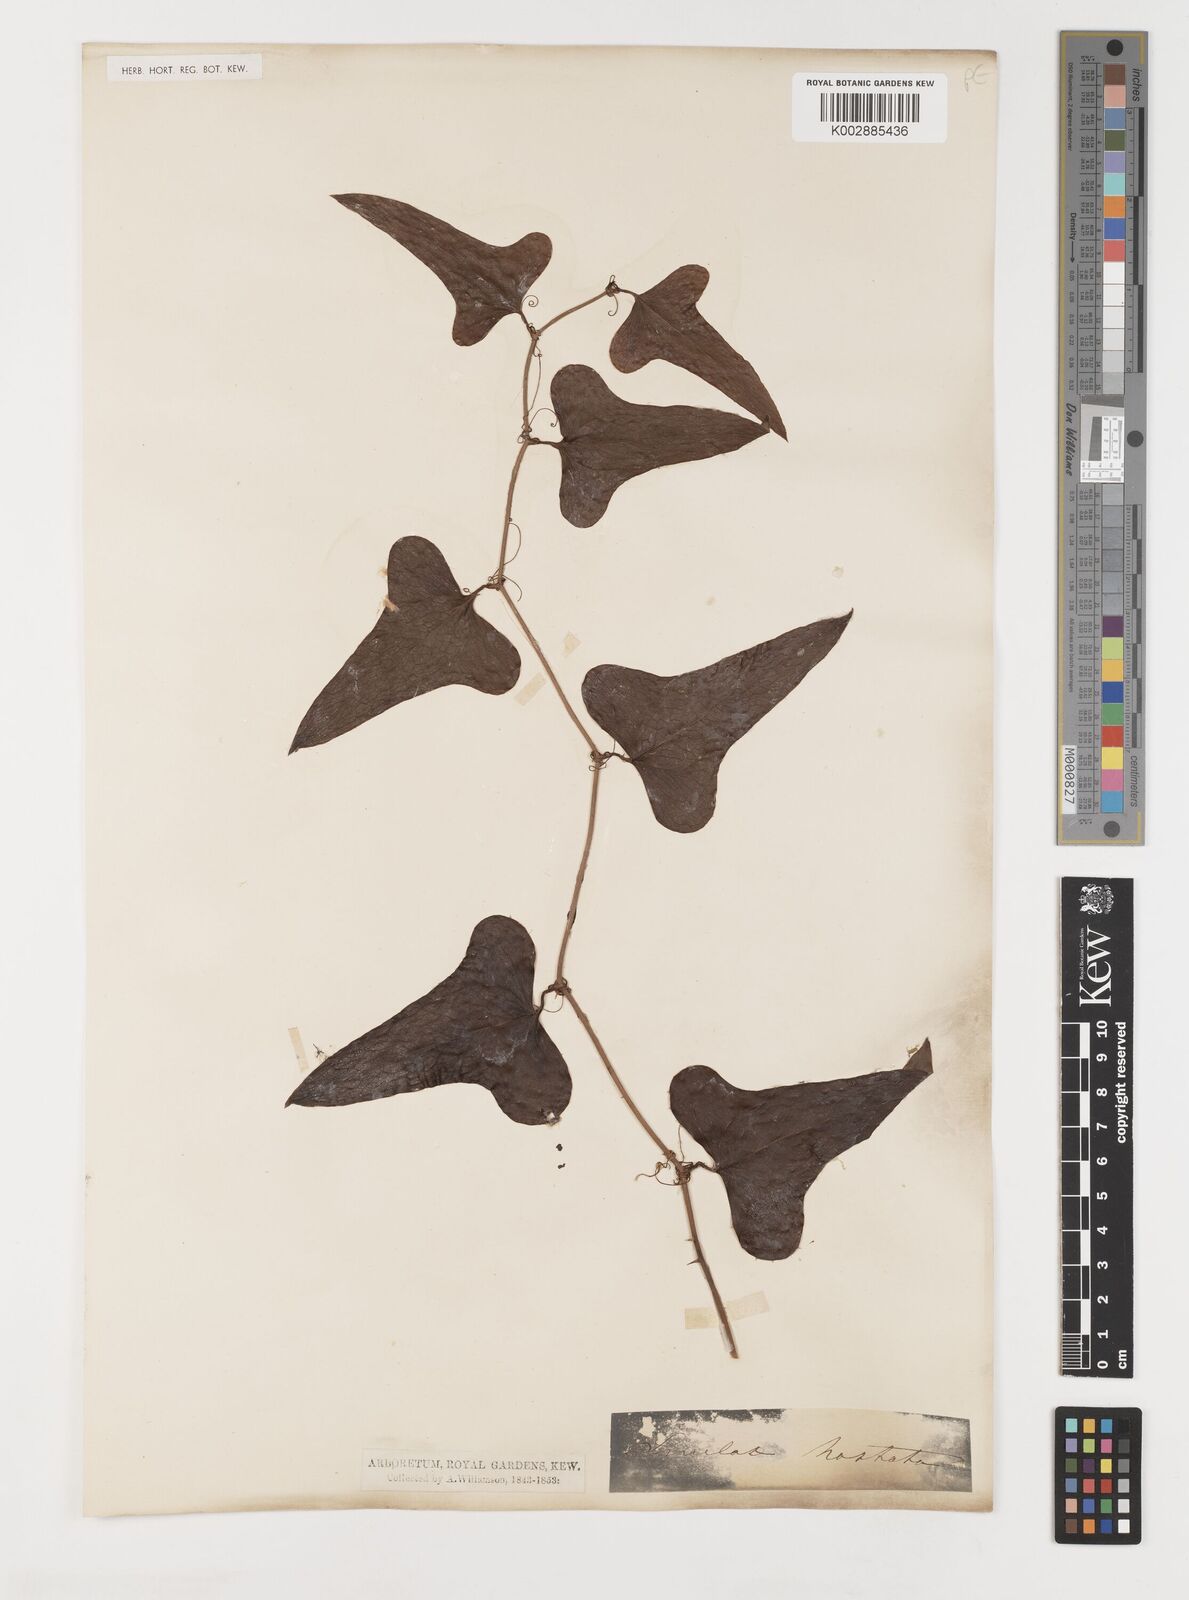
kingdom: Plantae
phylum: Tracheophyta
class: Liliopsida
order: Liliales
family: Smilacaceae
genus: Smilax
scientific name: Smilax bona-nox
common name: Catbrier
